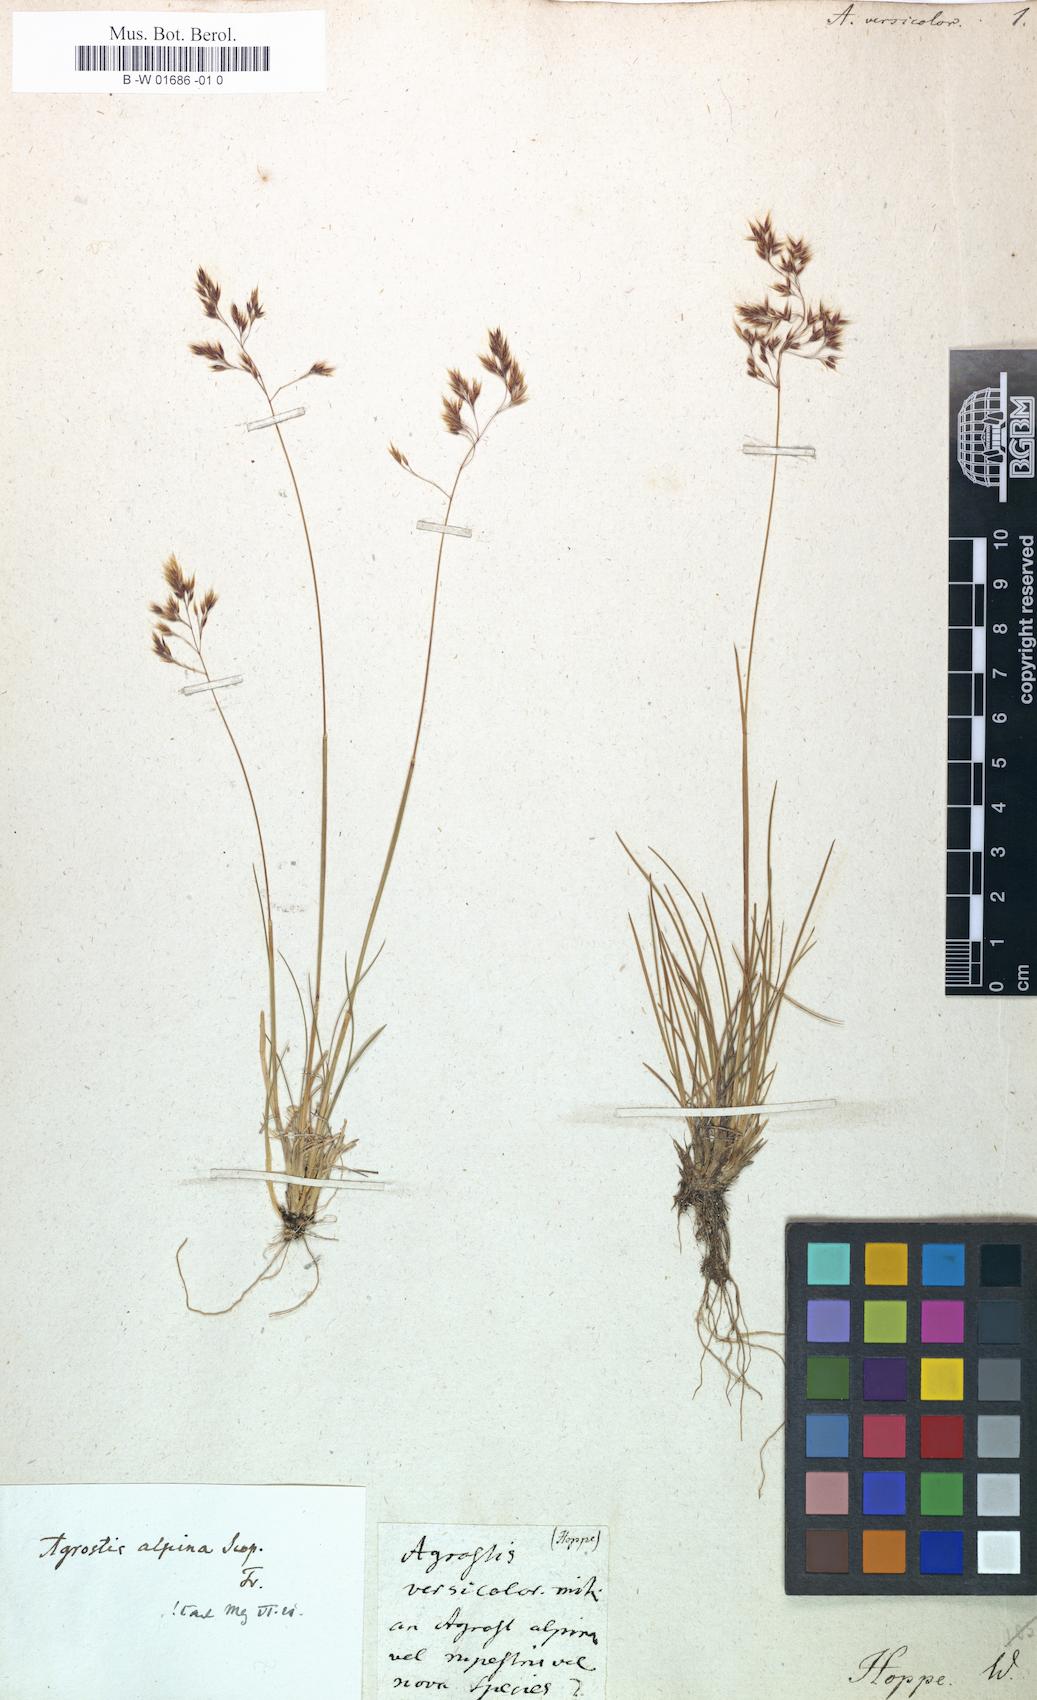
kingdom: Plantae
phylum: Tracheophyta
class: Liliopsida
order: Poales
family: Poaceae
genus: Colpodium
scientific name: Colpodium versicolor
